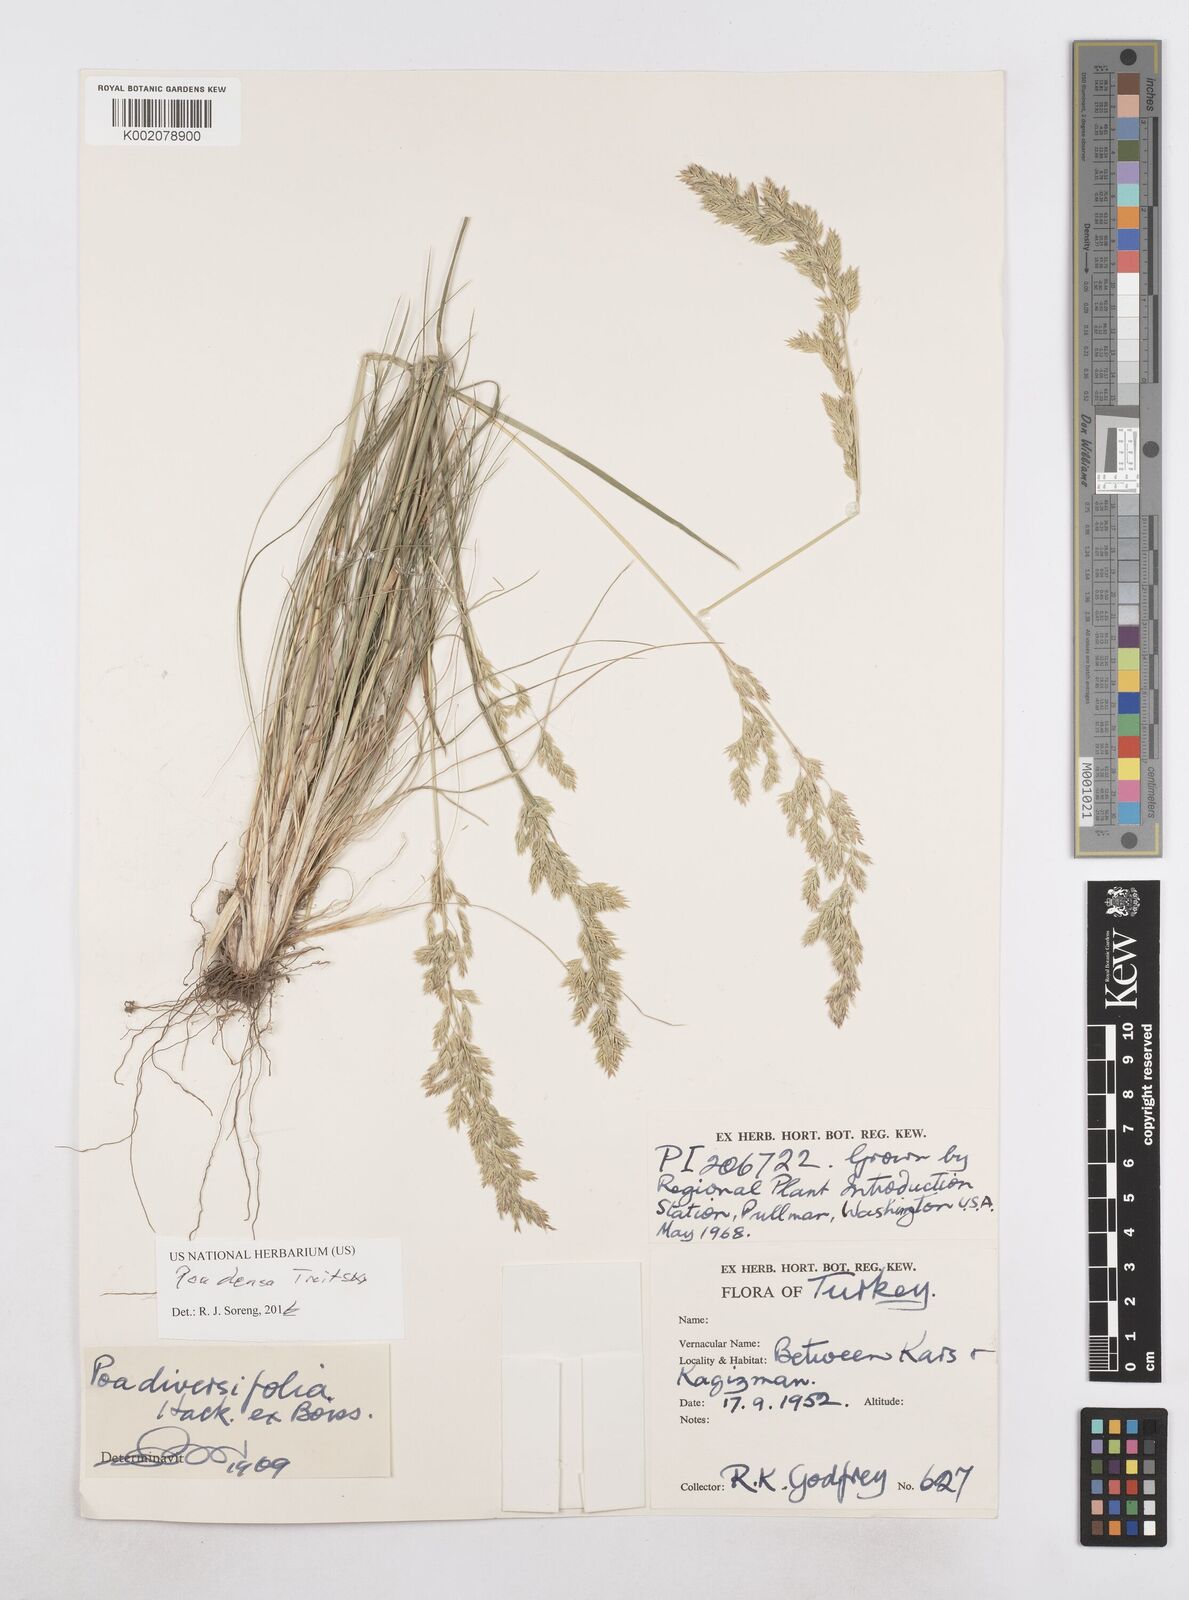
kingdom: Plantae
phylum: Tracheophyta
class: Liliopsida
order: Poales
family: Poaceae
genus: Poa
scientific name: Poa densa
